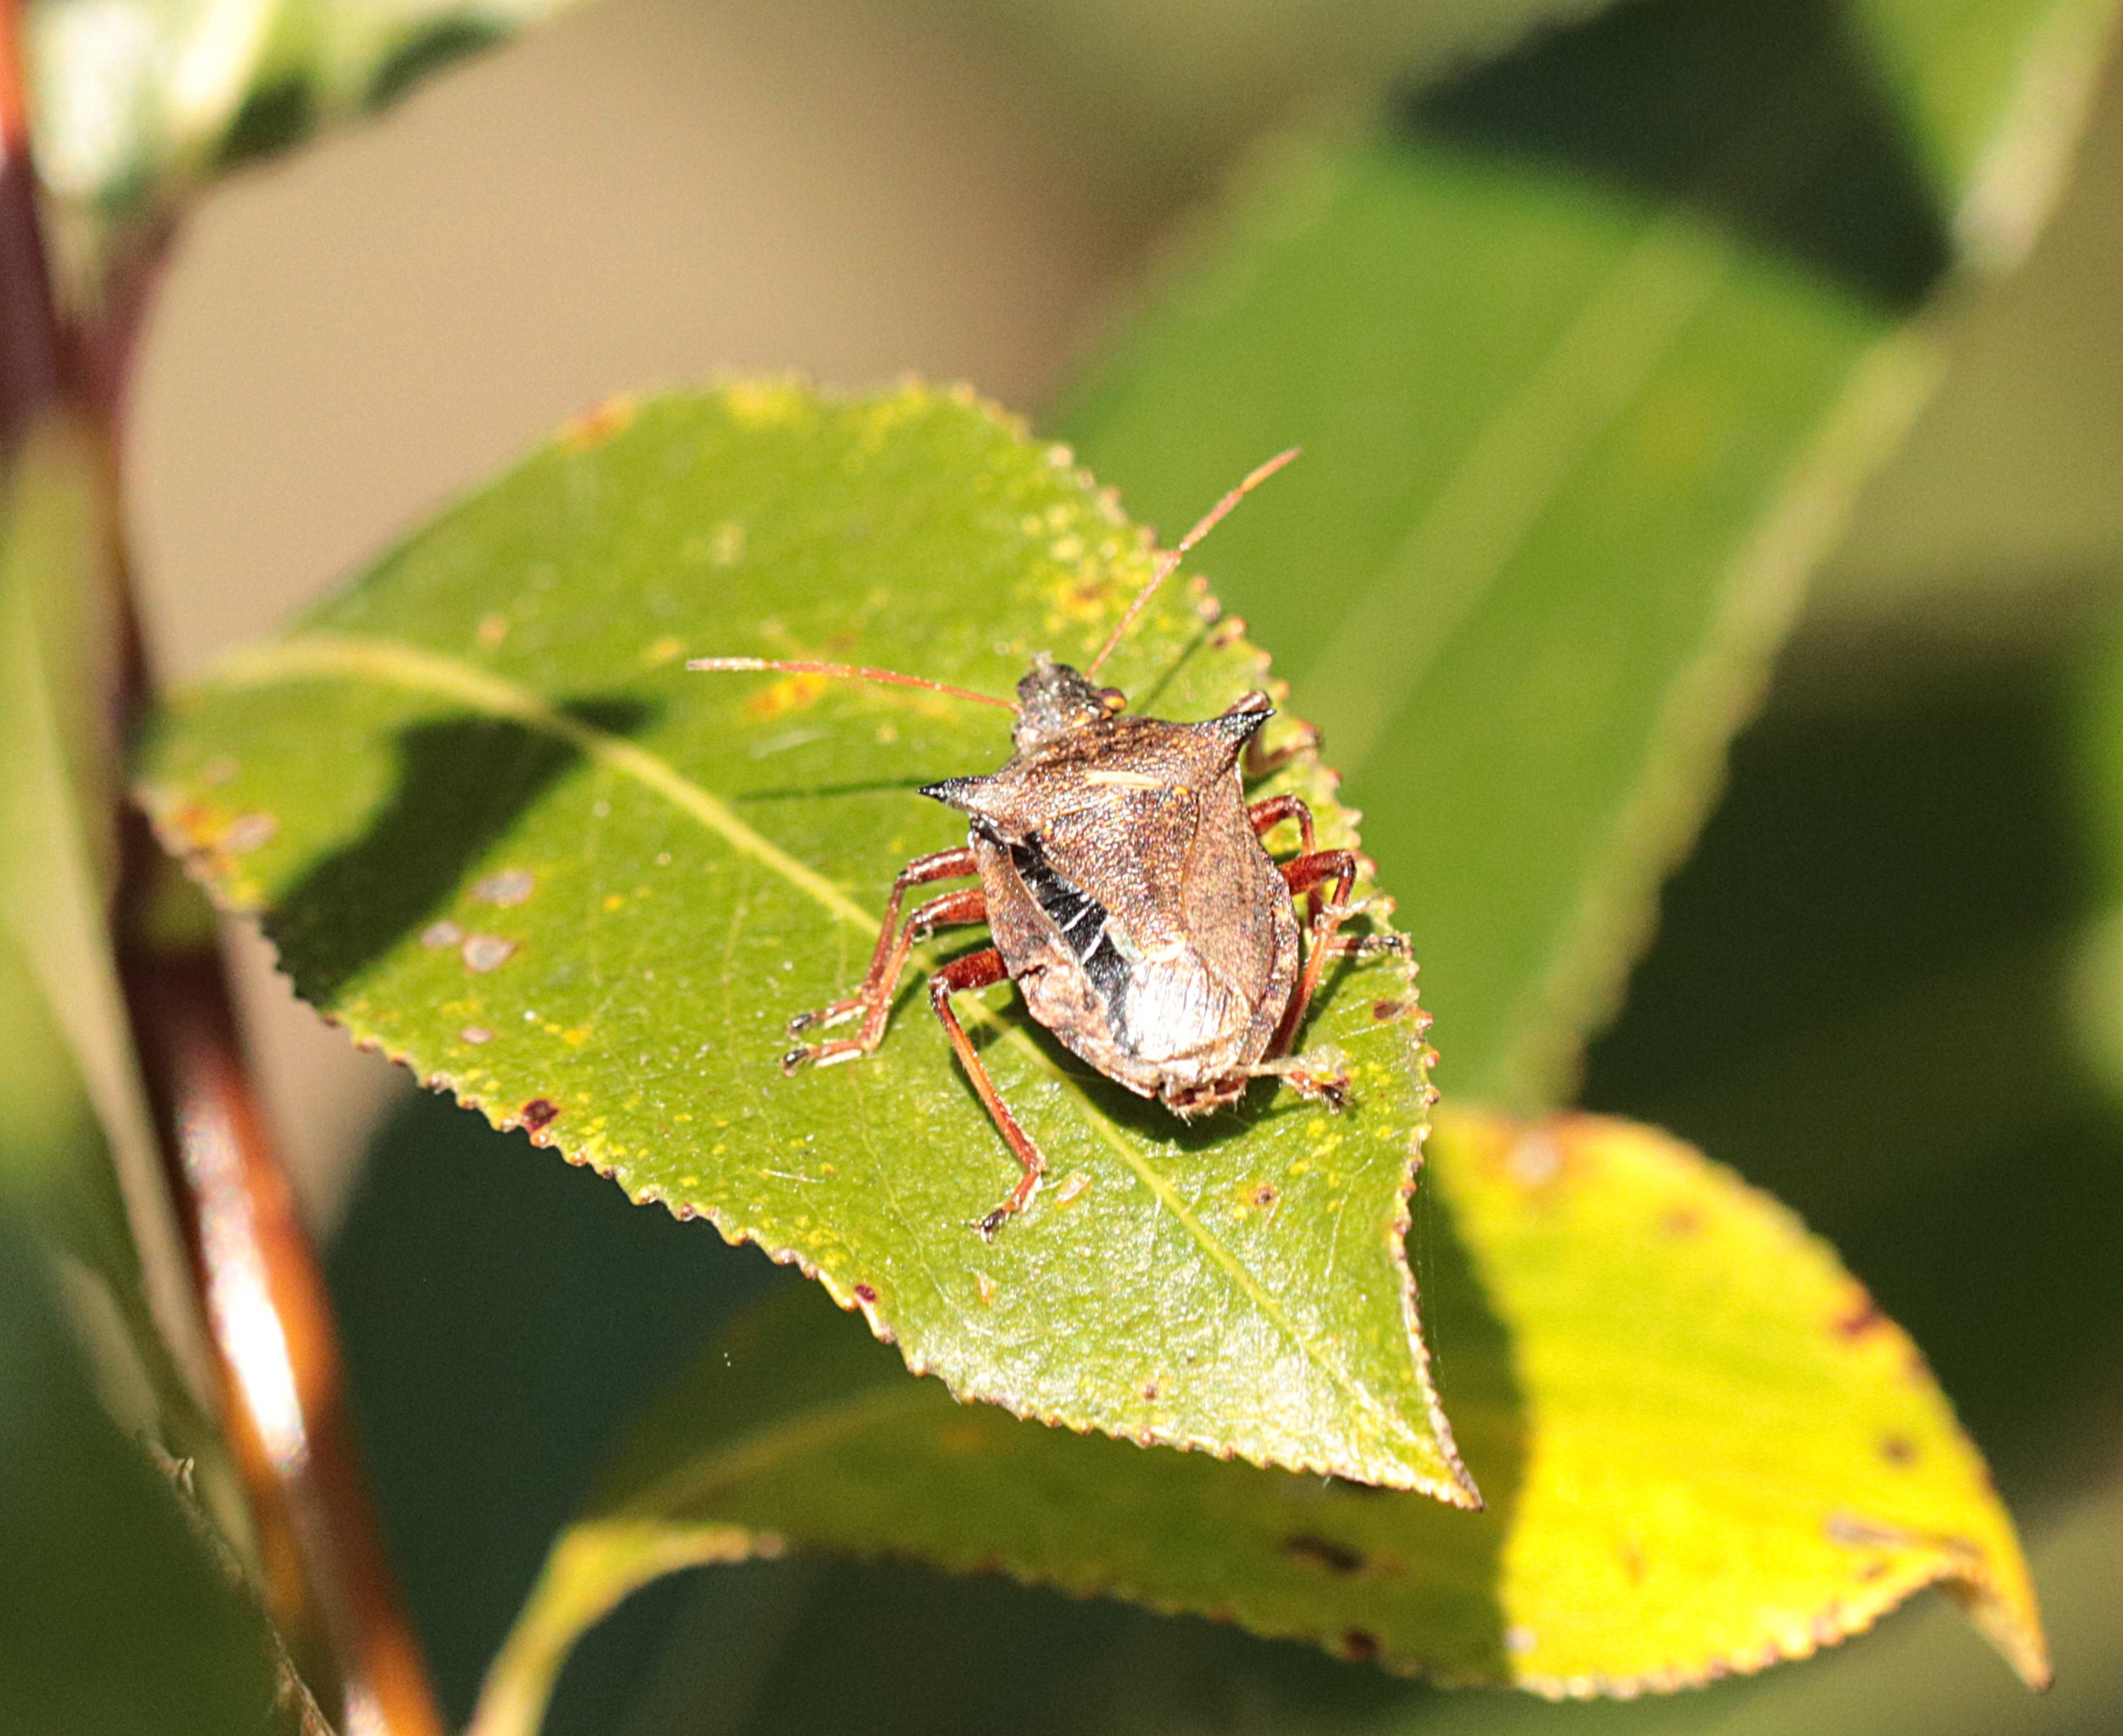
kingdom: Animalia
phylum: Arthropoda
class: Insecta
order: Hemiptera
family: Pentatomidae
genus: Picromerus
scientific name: Picromerus bidens
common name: Torntæge
